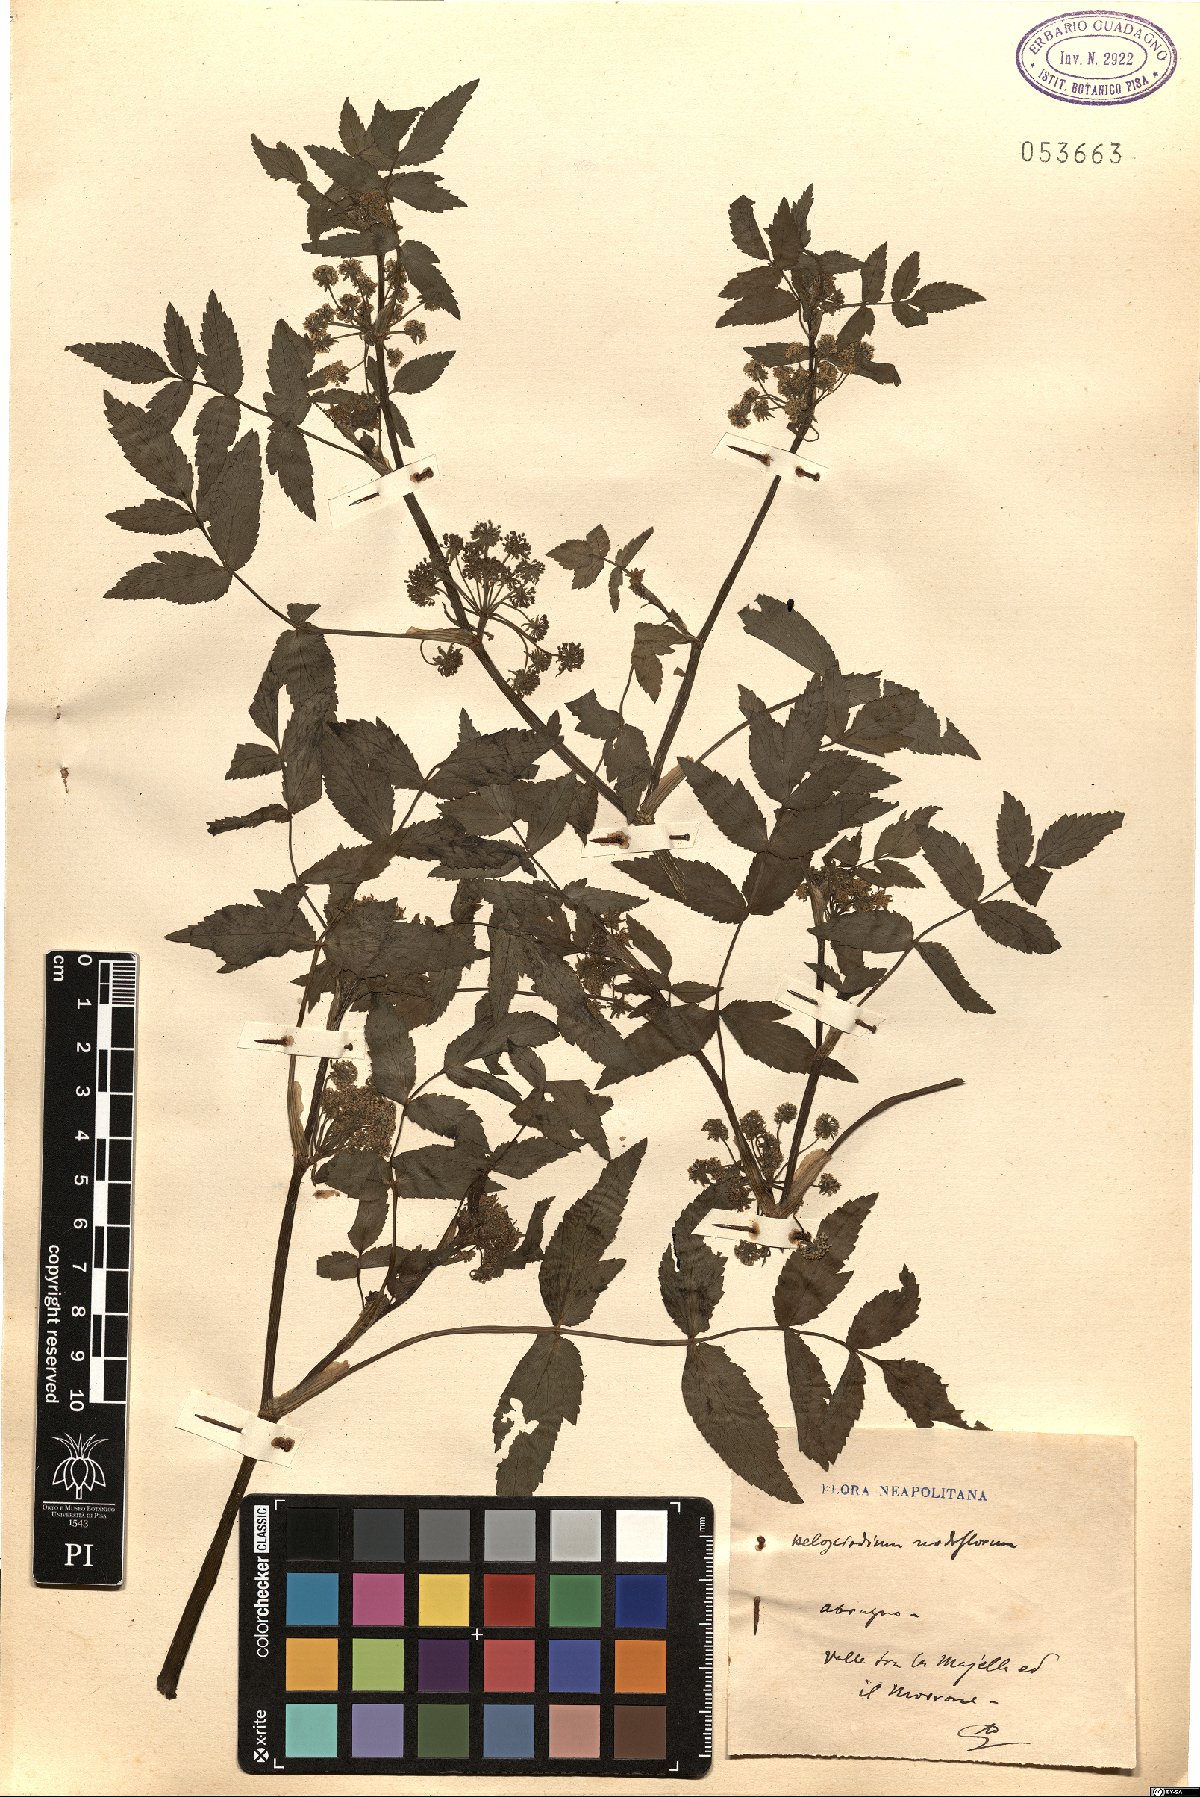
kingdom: Plantae
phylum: Tracheophyta
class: Magnoliopsida
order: Apiales
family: Apiaceae
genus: Helosciadium
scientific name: Helosciadium nodiflorum
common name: Fool's-watercress
